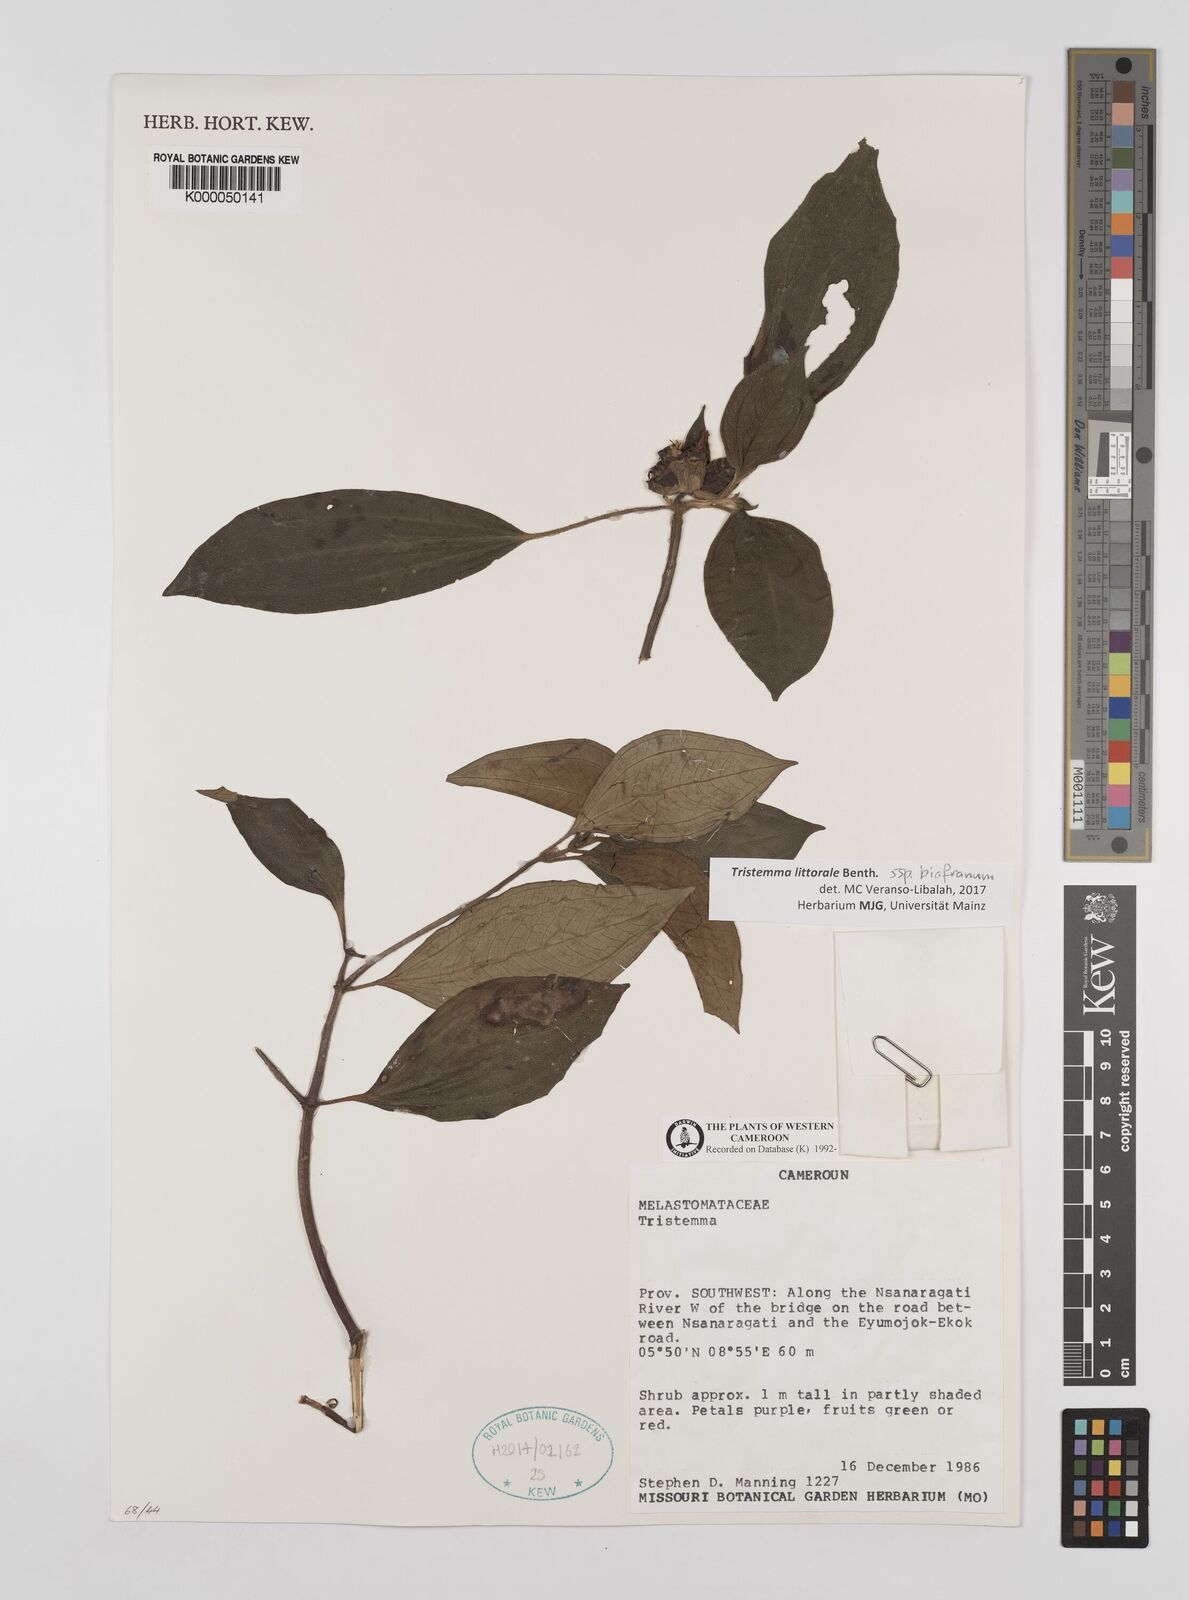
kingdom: Plantae
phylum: Tracheophyta
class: Magnoliopsida
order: Myrtales
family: Melastomataceae
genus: Tristemma
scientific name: Tristemma
